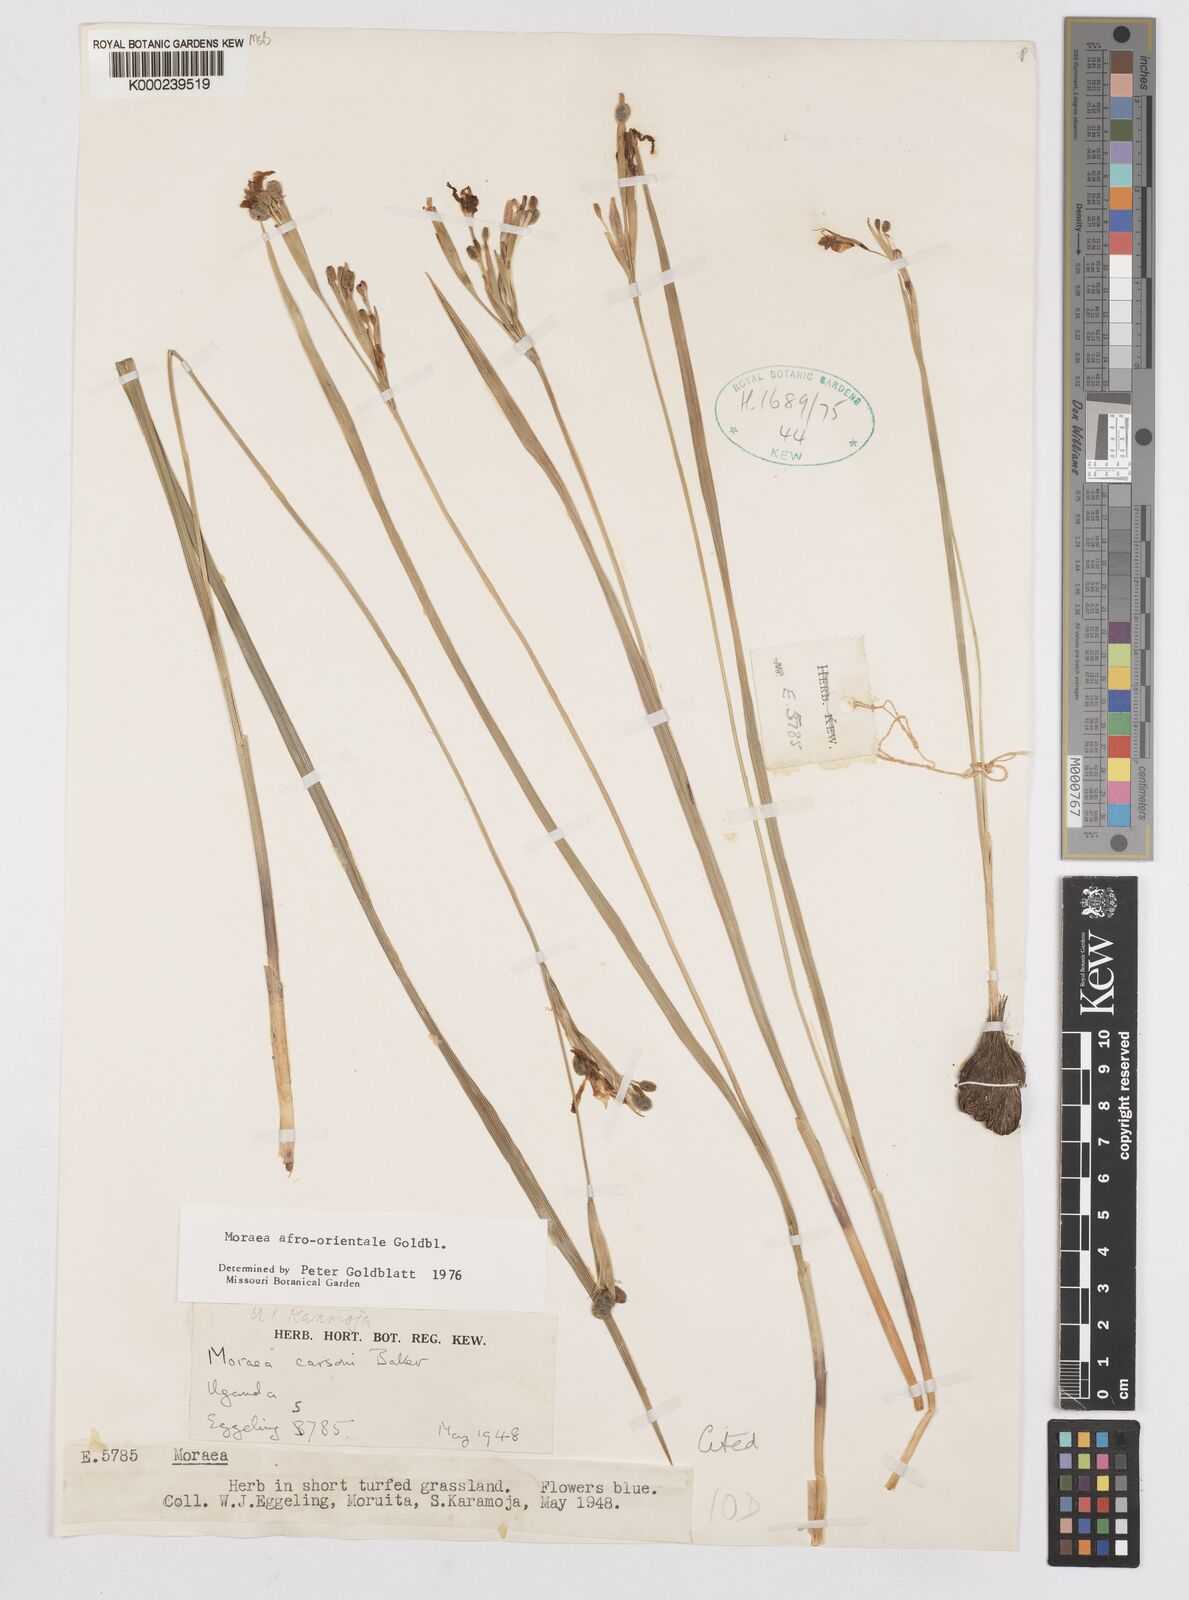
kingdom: Plantae
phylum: Tracheophyta
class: Liliopsida
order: Asparagales
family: Iridaceae
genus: Moraea
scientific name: Moraea
